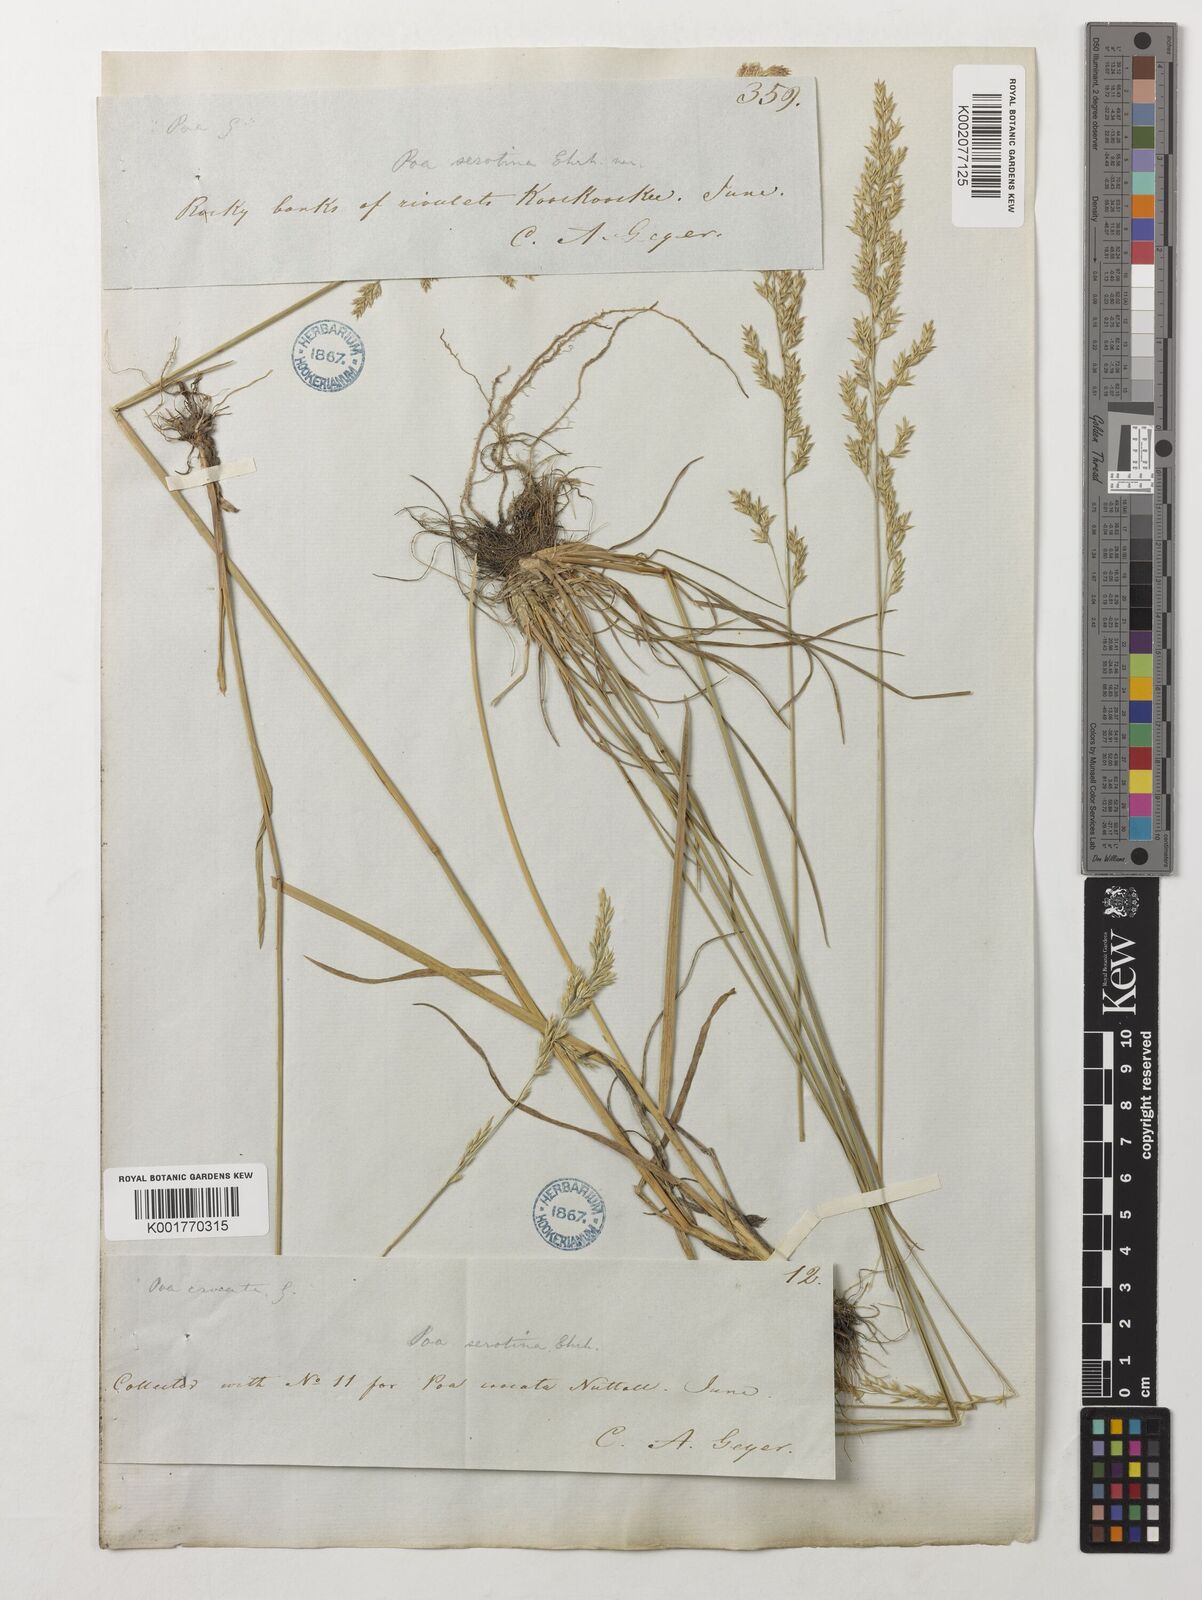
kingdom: Plantae
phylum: Tracheophyta
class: Liliopsida
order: Poales
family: Poaceae
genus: Poa
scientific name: Poa palustris
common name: Swamp meadow-grass
